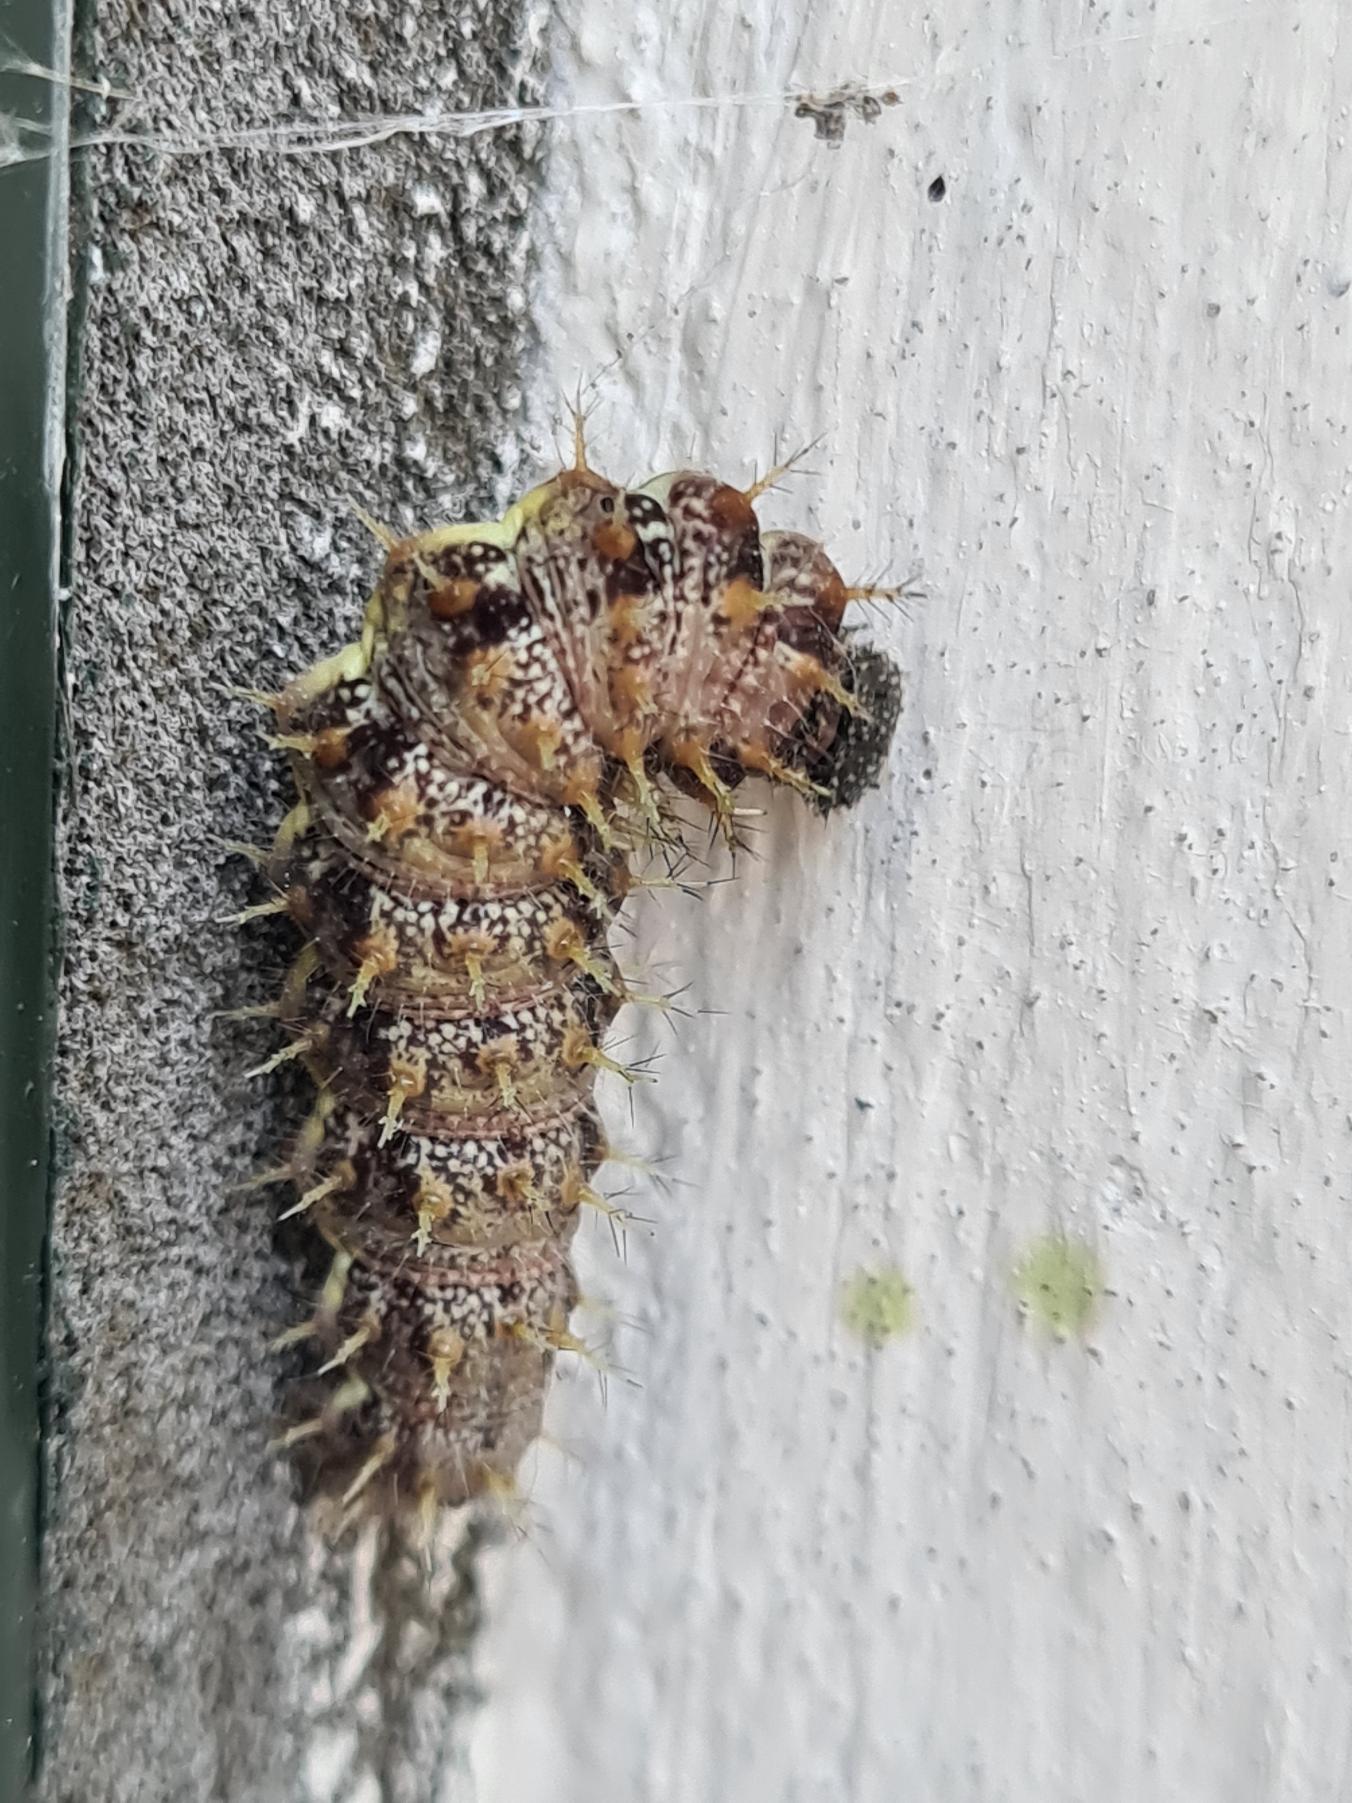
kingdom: Animalia
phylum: Arthropoda
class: Insecta
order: Lepidoptera
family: Nymphalidae
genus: Vanessa
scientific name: Vanessa atalanta
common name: Admiral
